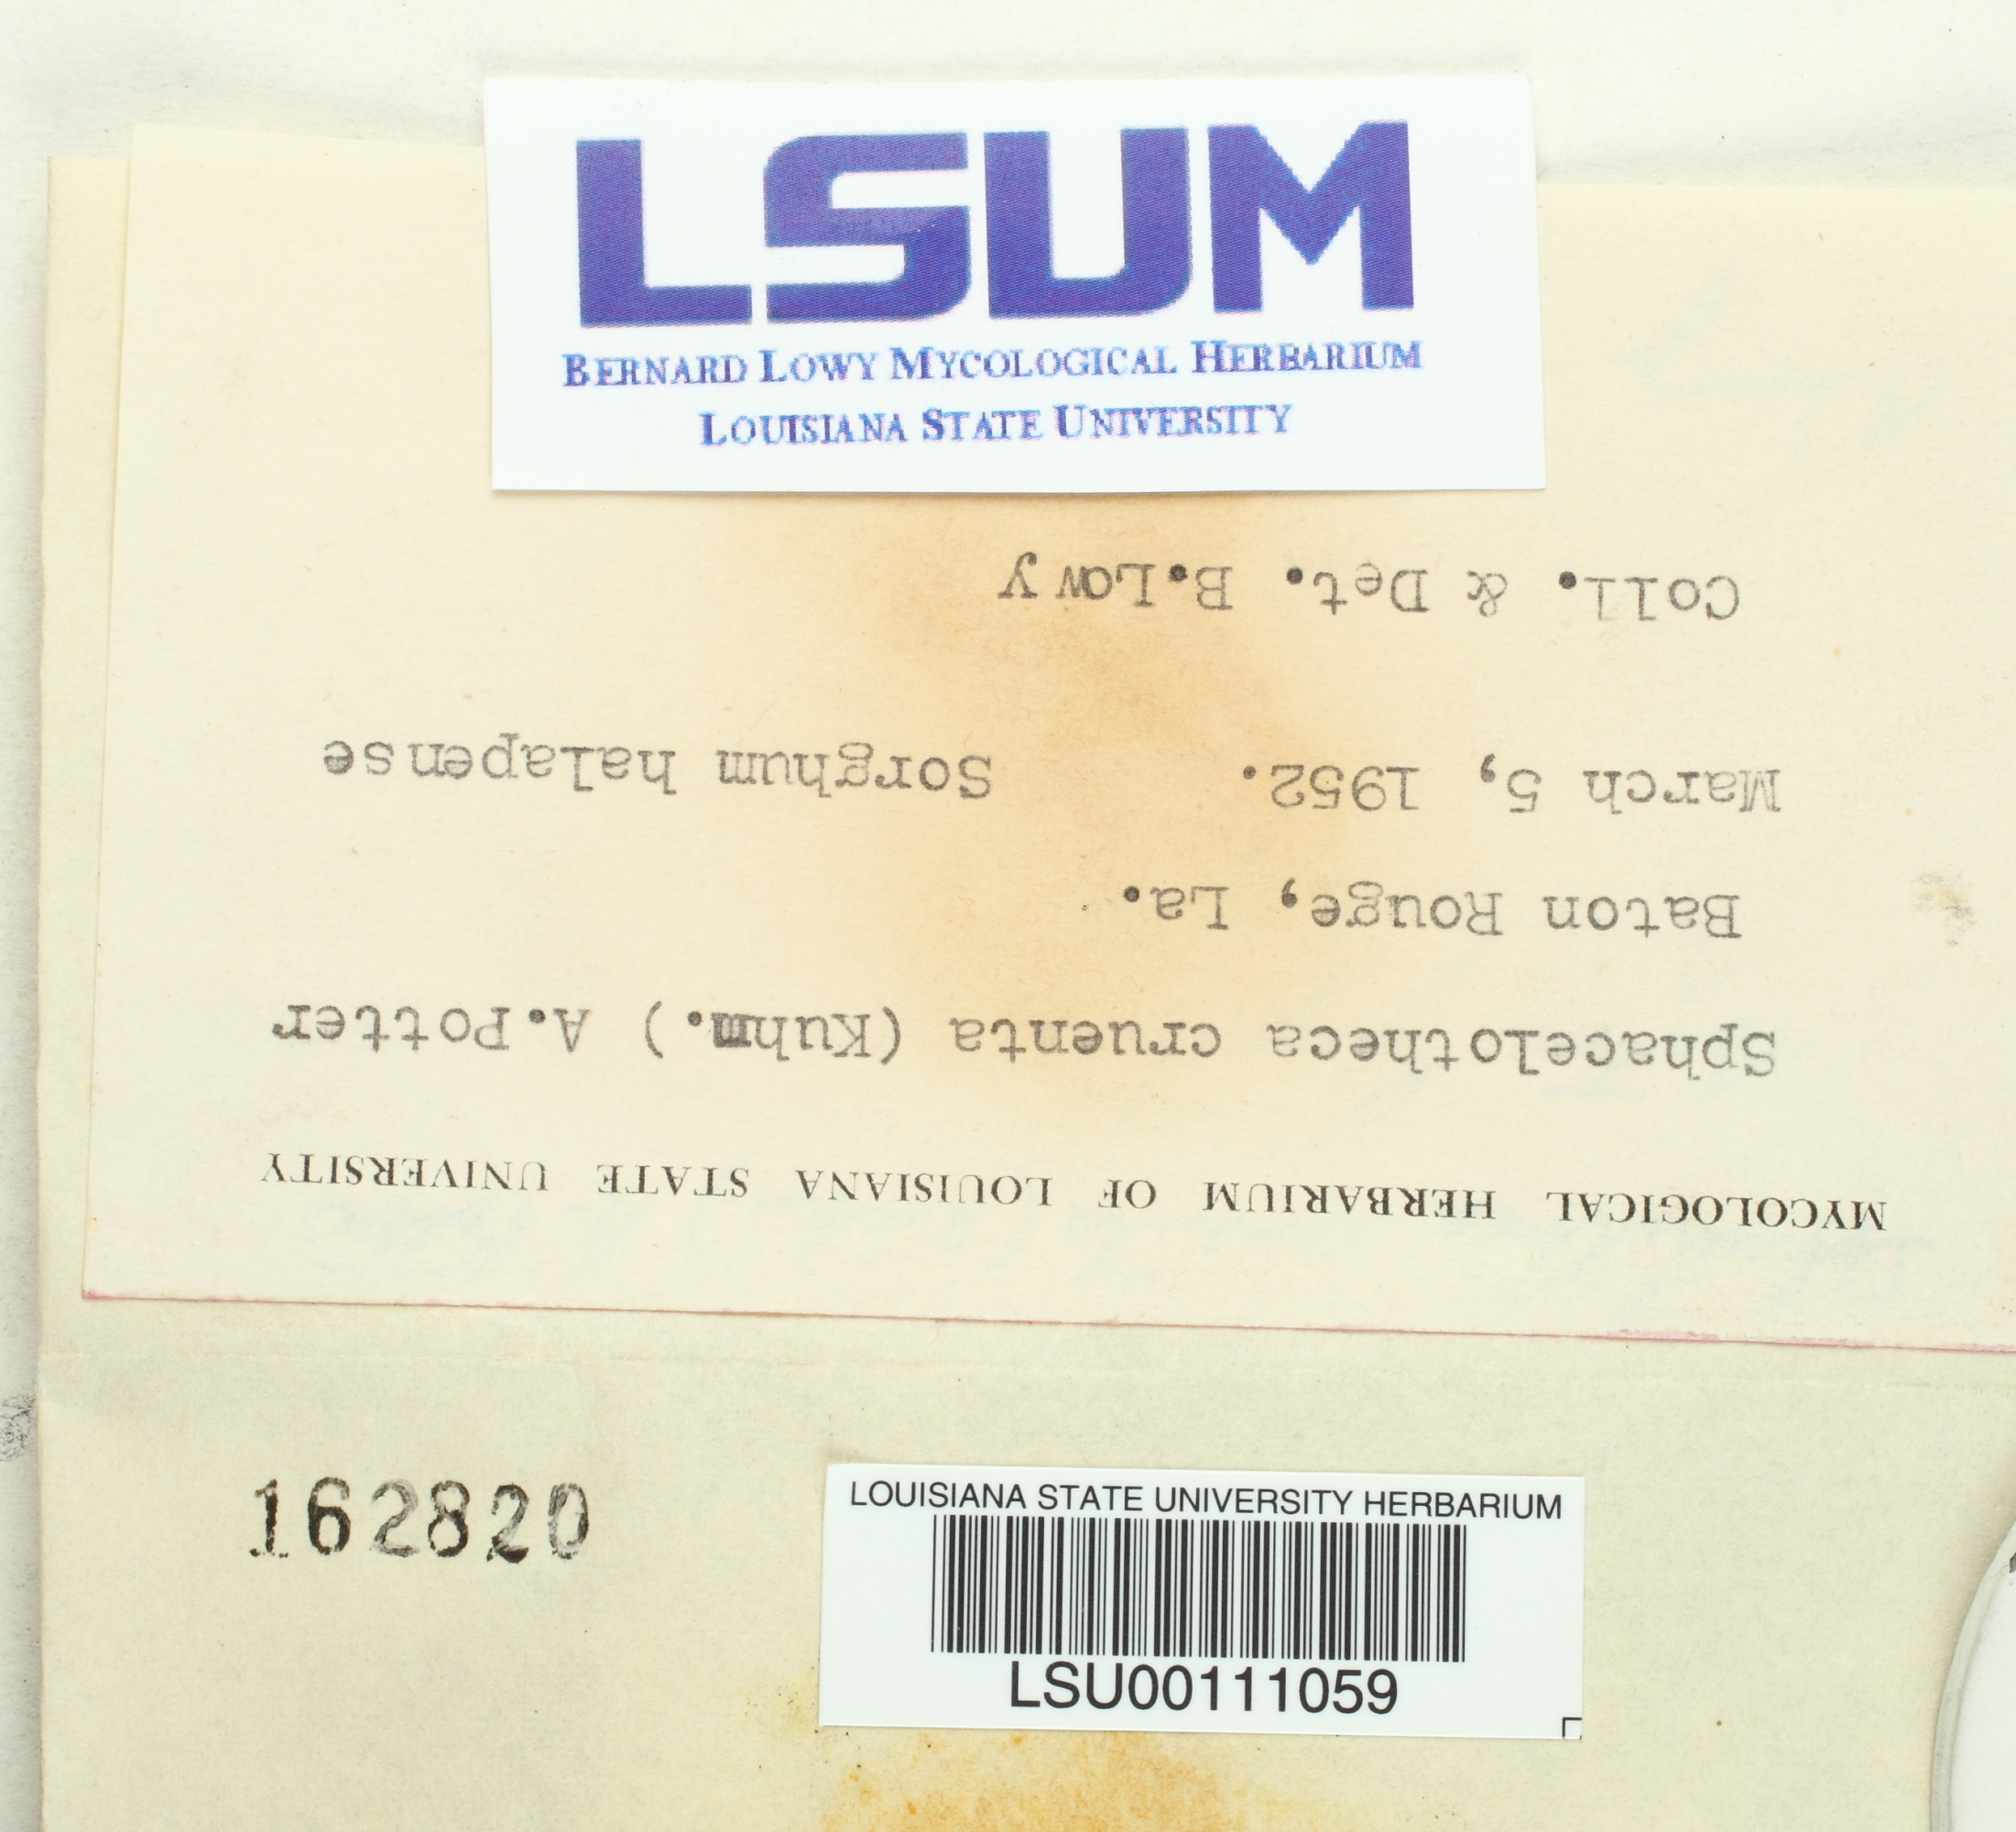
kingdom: Fungi
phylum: Basidiomycota
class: Ustilaginomycetes
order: Ustilaginales
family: Ustilaginaceae
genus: Sporisorium
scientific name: Sporisorium cruentum
